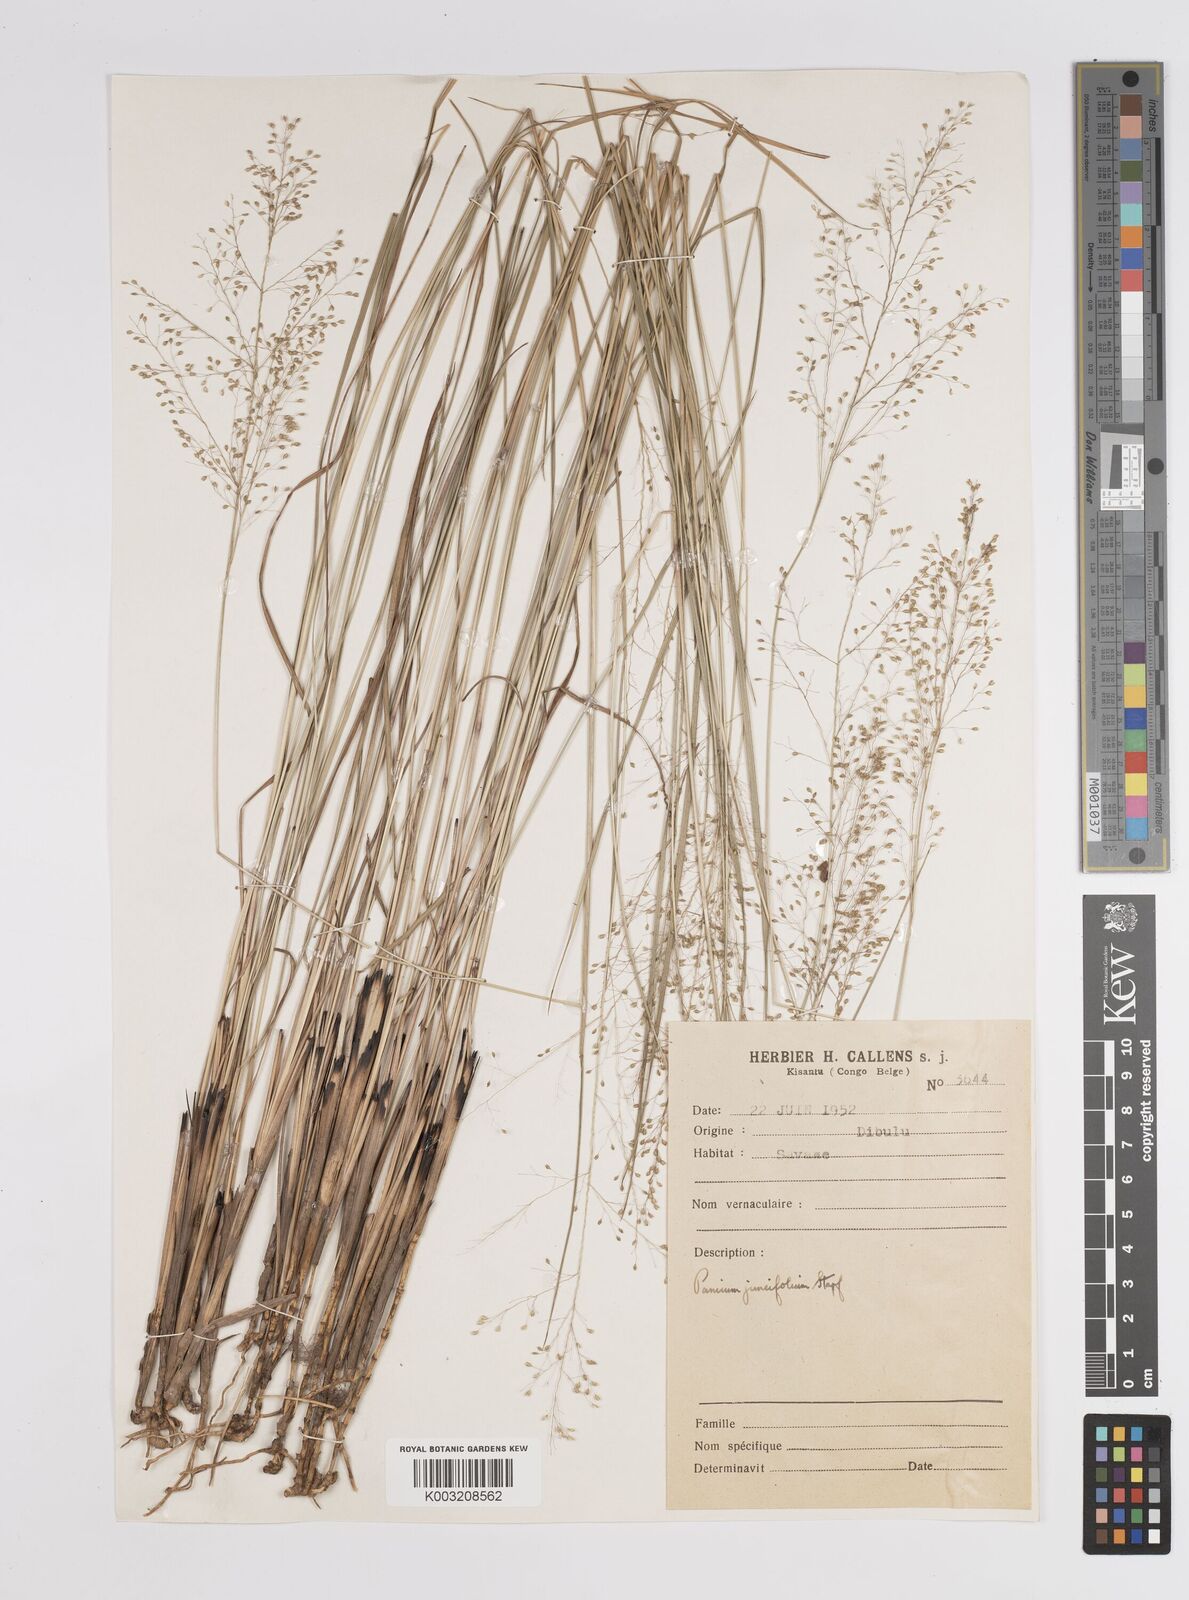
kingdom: Plantae
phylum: Tracheophyta
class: Liliopsida
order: Poales
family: Poaceae
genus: Trichanthecium
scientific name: Trichanthecium natalense
